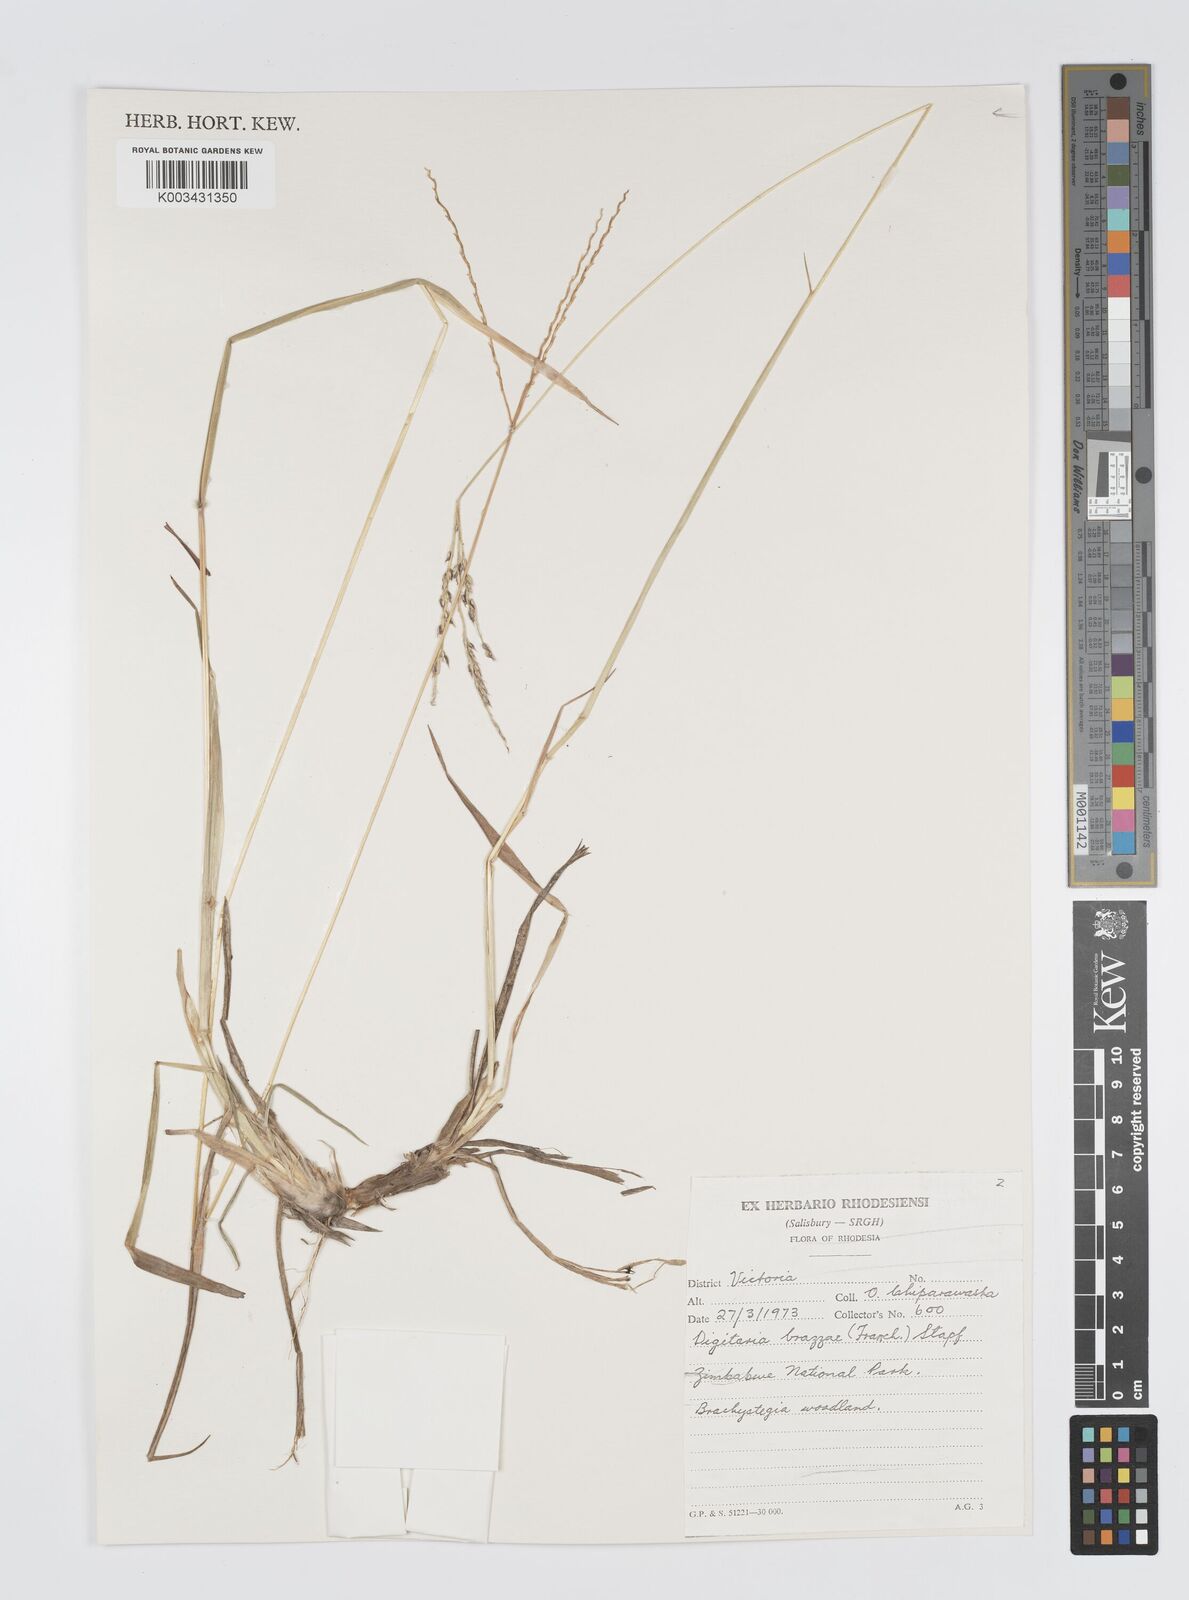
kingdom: Plantae
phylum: Tracheophyta
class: Liliopsida
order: Poales
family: Poaceae
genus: Digitaria
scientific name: Digitaria brazzae
